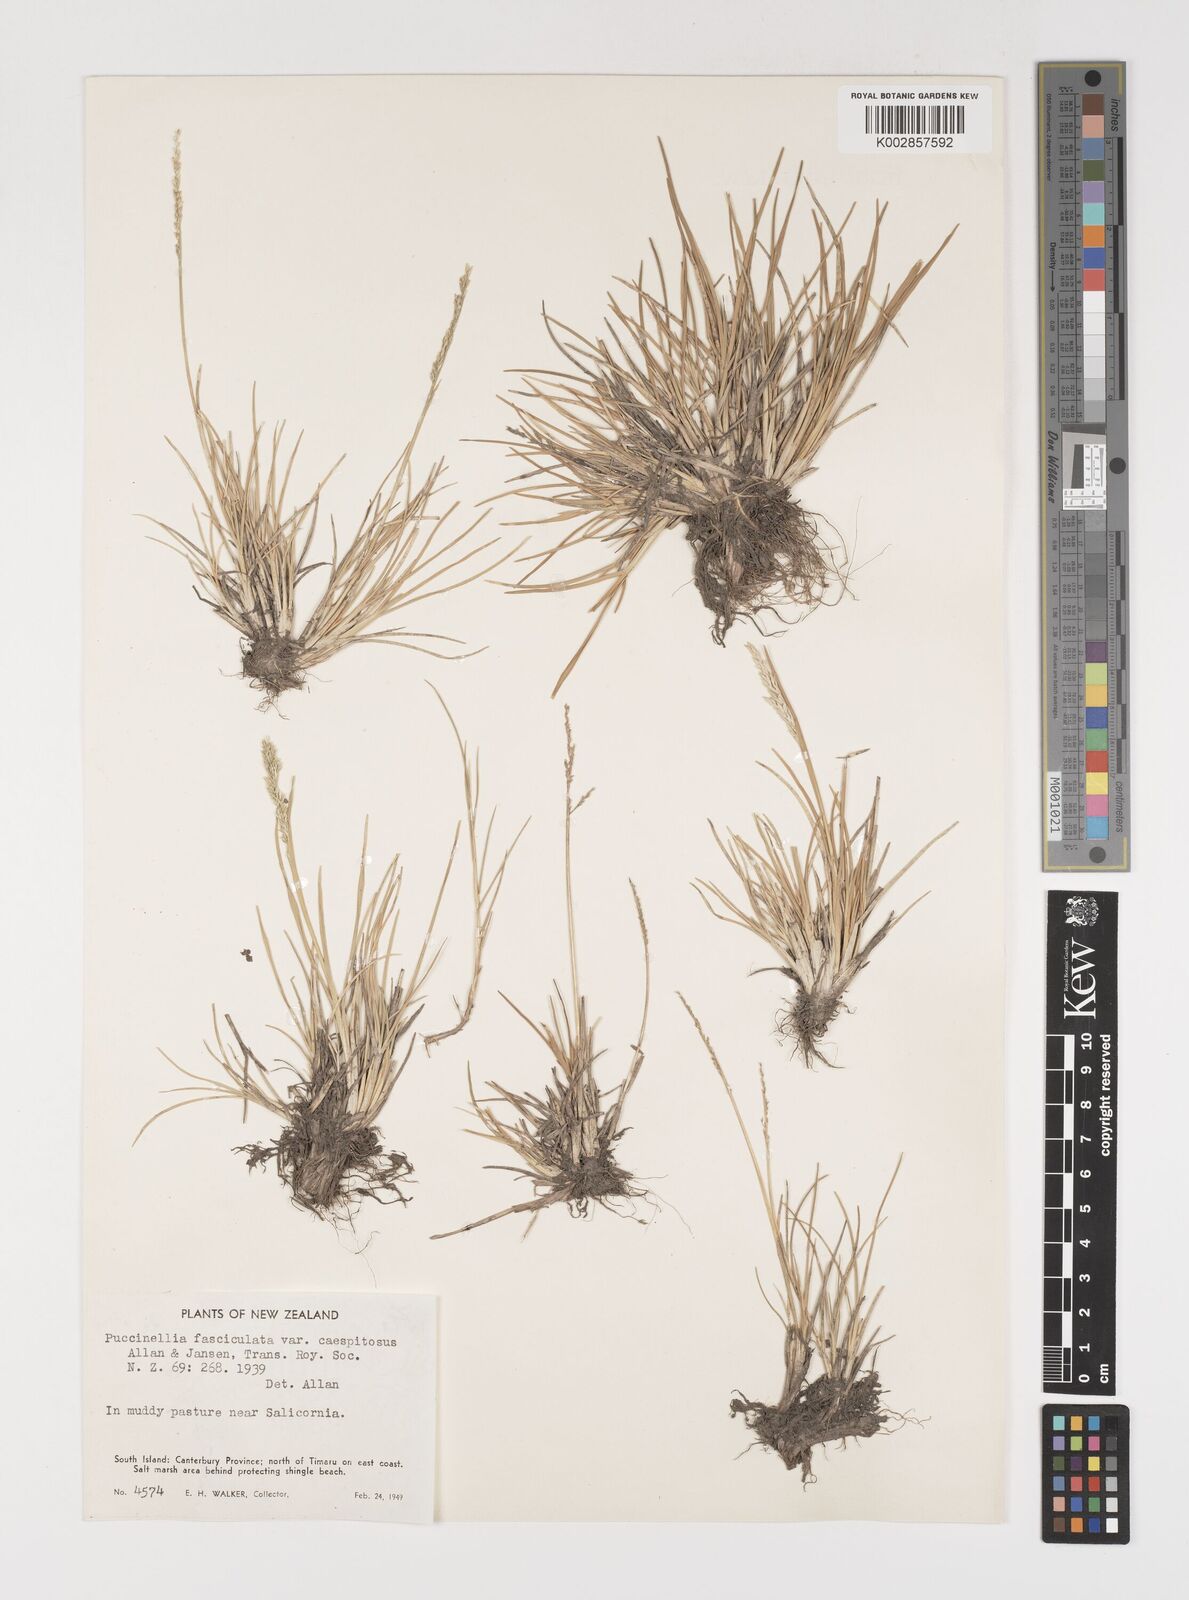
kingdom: Plantae
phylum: Tracheophyta
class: Liliopsida
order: Poales
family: Poaceae
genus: Puccinellia
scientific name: Puccinellia festuciformis
